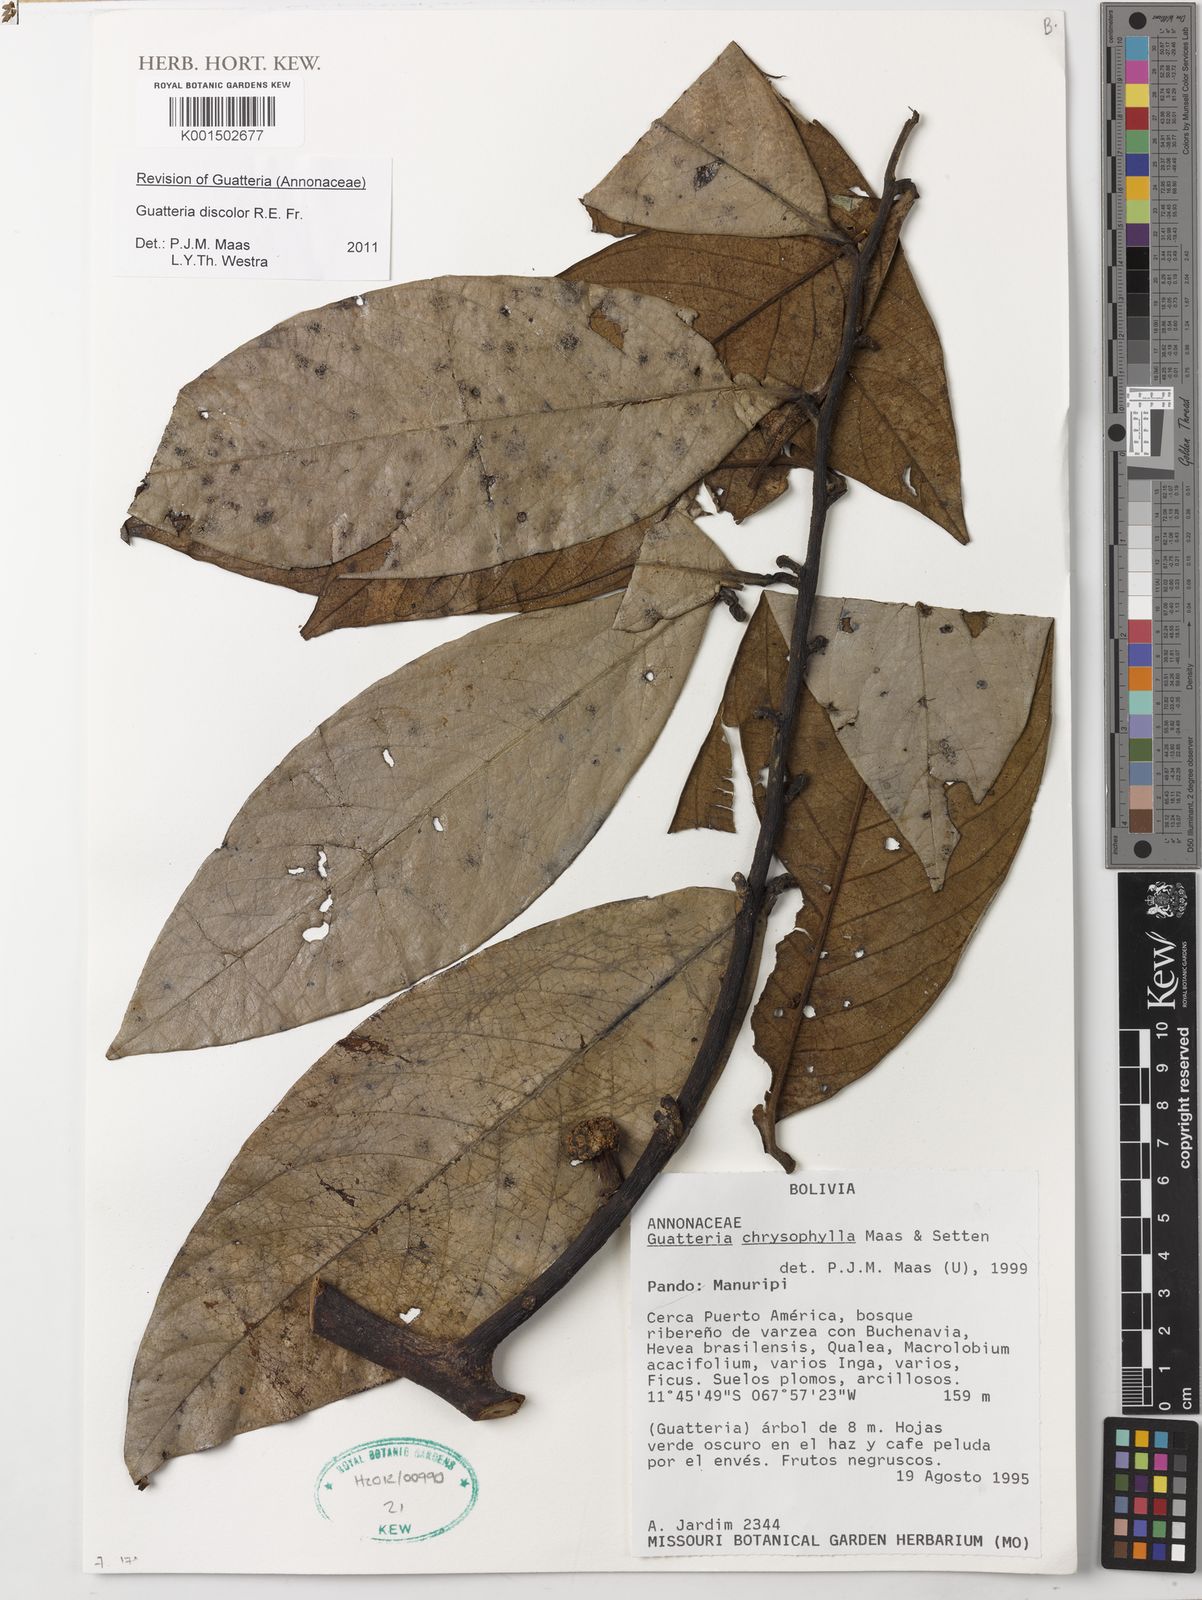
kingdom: Plantae
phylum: Tracheophyta
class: Magnoliopsida
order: Magnoliales
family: Annonaceae
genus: Guatteria
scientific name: Guatteria discolor
